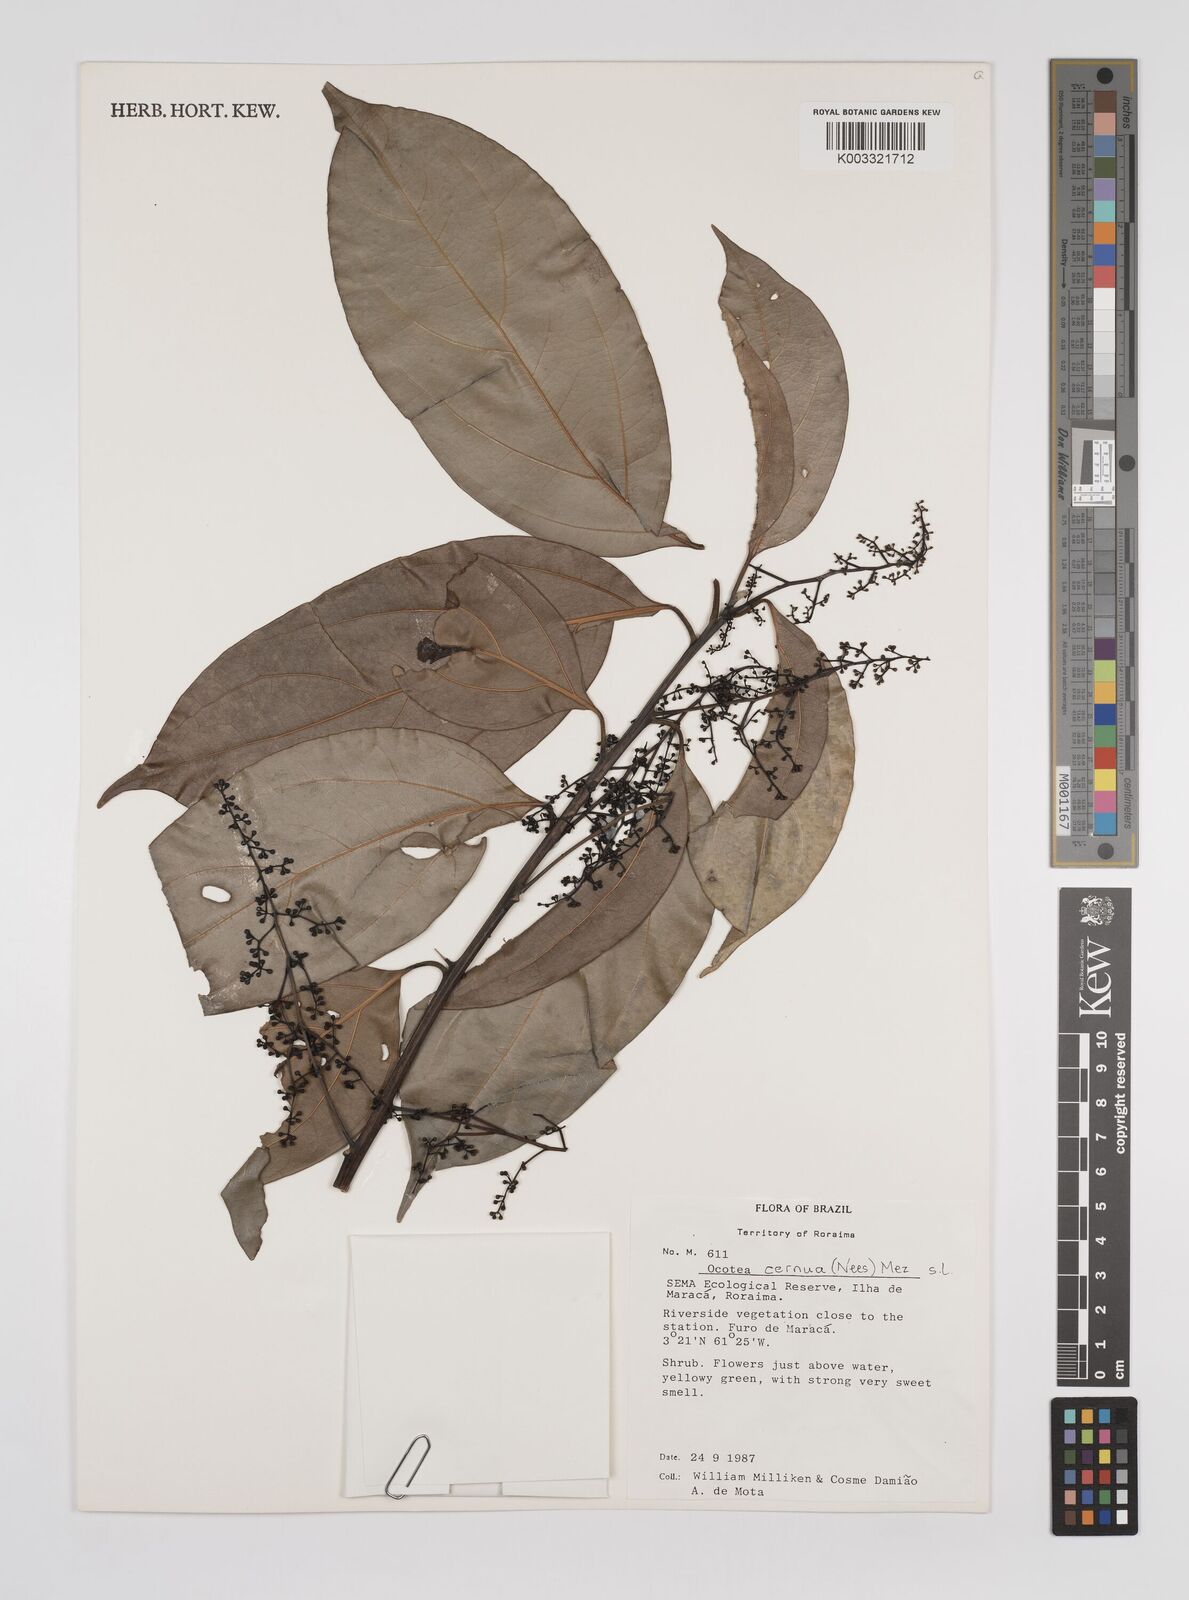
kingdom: Plantae
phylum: Tracheophyta
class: Magnoliopsida
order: Laurales
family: Lauraceae
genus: Ocotea
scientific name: Ocotea leptobotra
